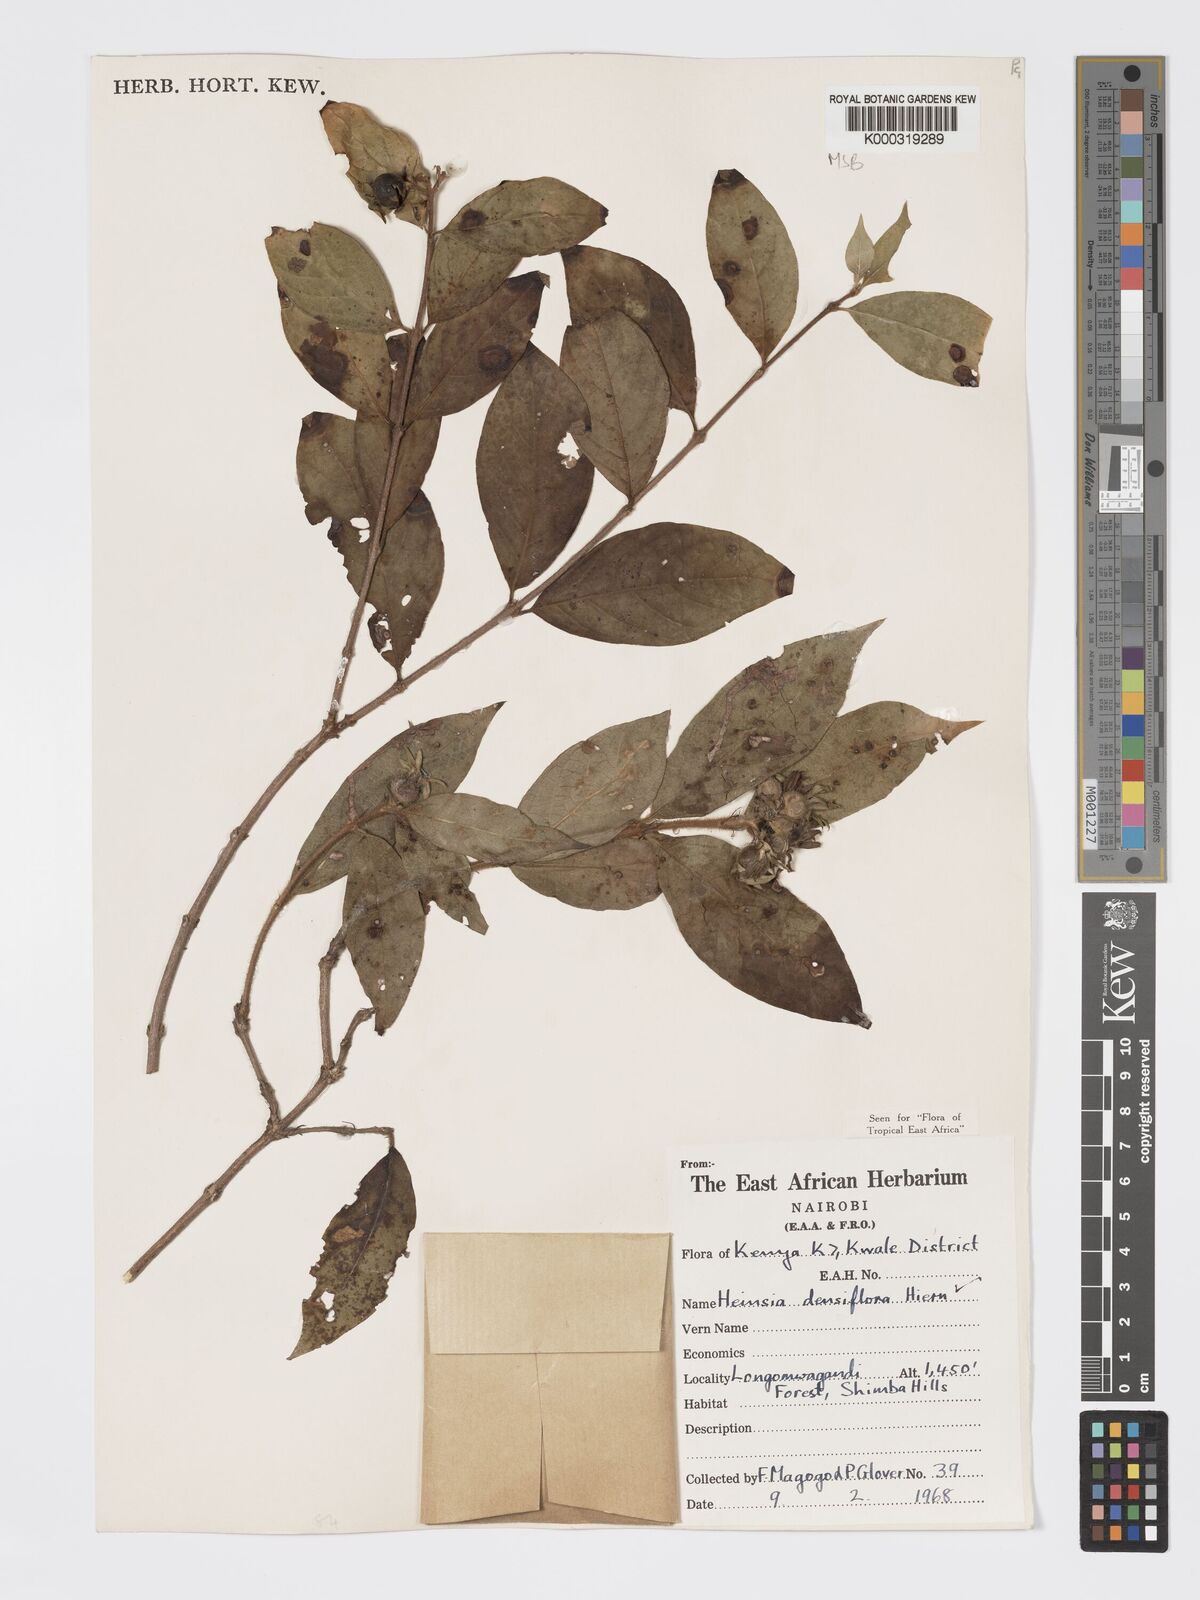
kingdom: Plantae
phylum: Tracheophyta
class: Magnoliopsida
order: Gentianales
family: Rubiaceae
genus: Heinsia
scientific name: Heinsia zanzibarica
